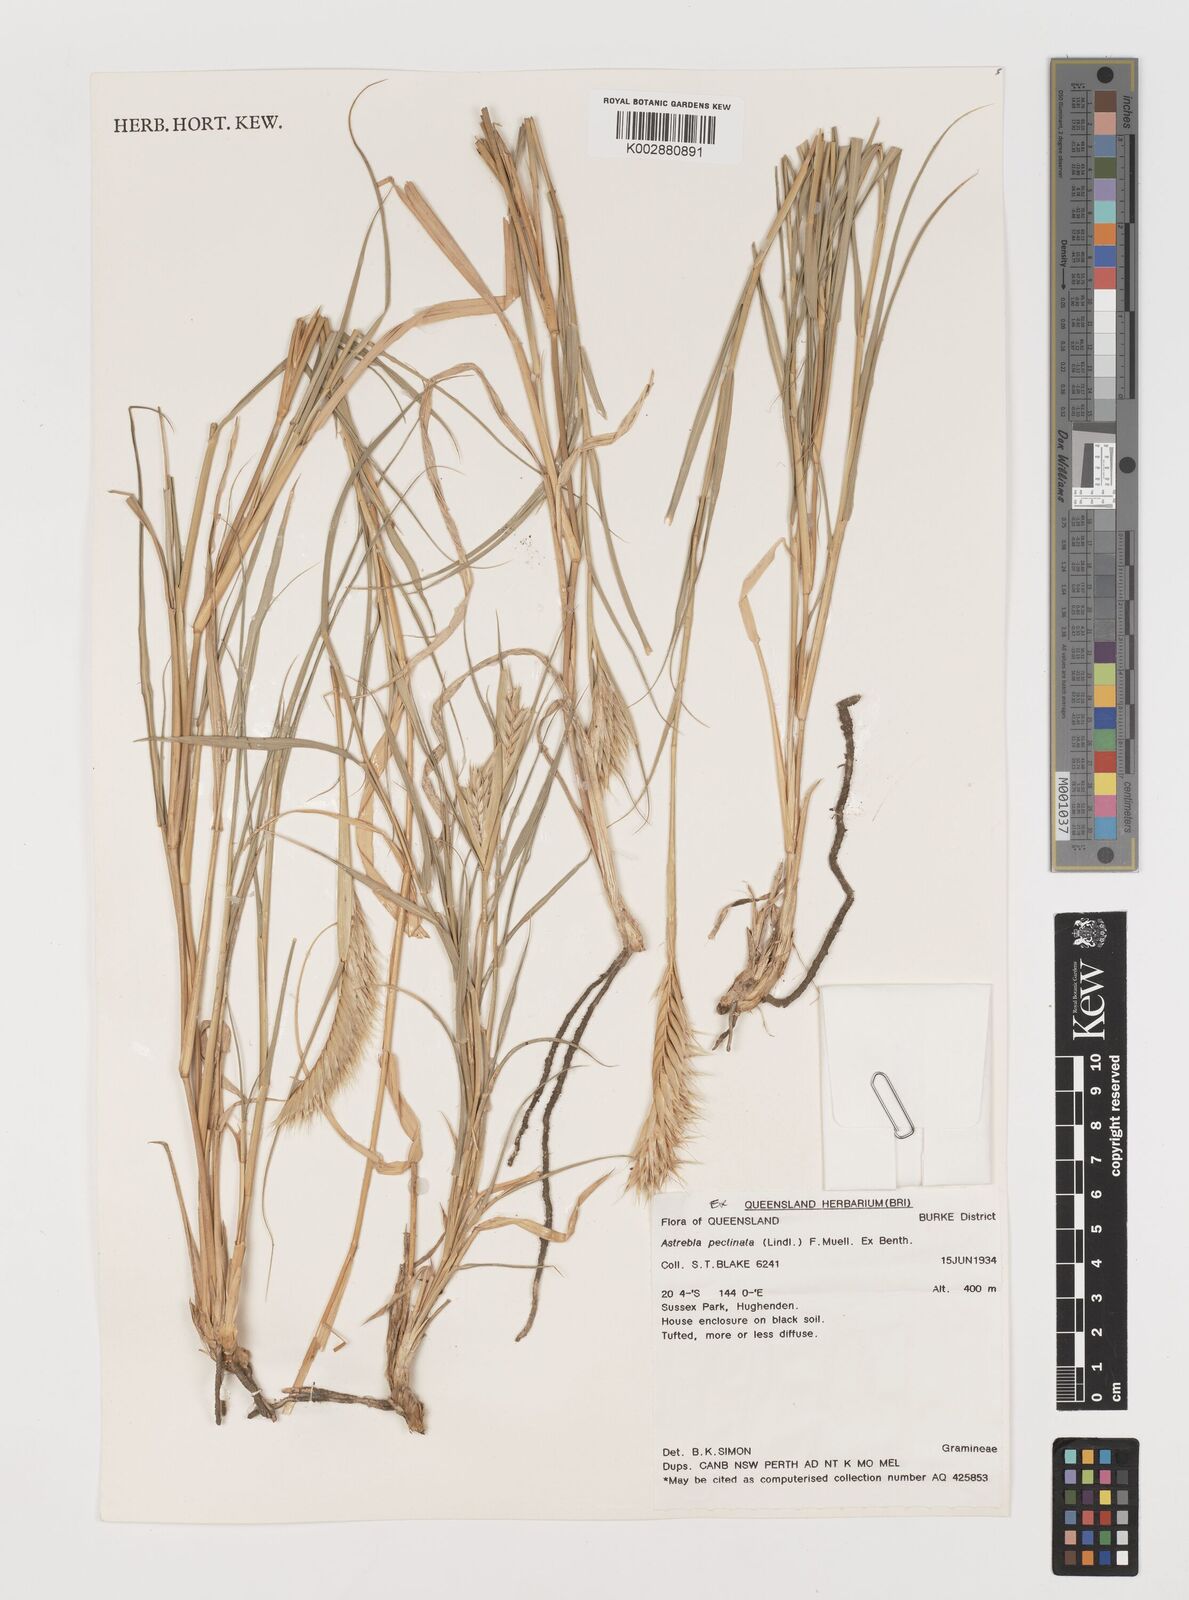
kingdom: Plantae
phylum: Tracheophyta
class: Liliopsida
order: Poales
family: Poaceae
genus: Astrebla
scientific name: Astrebla pectinata
